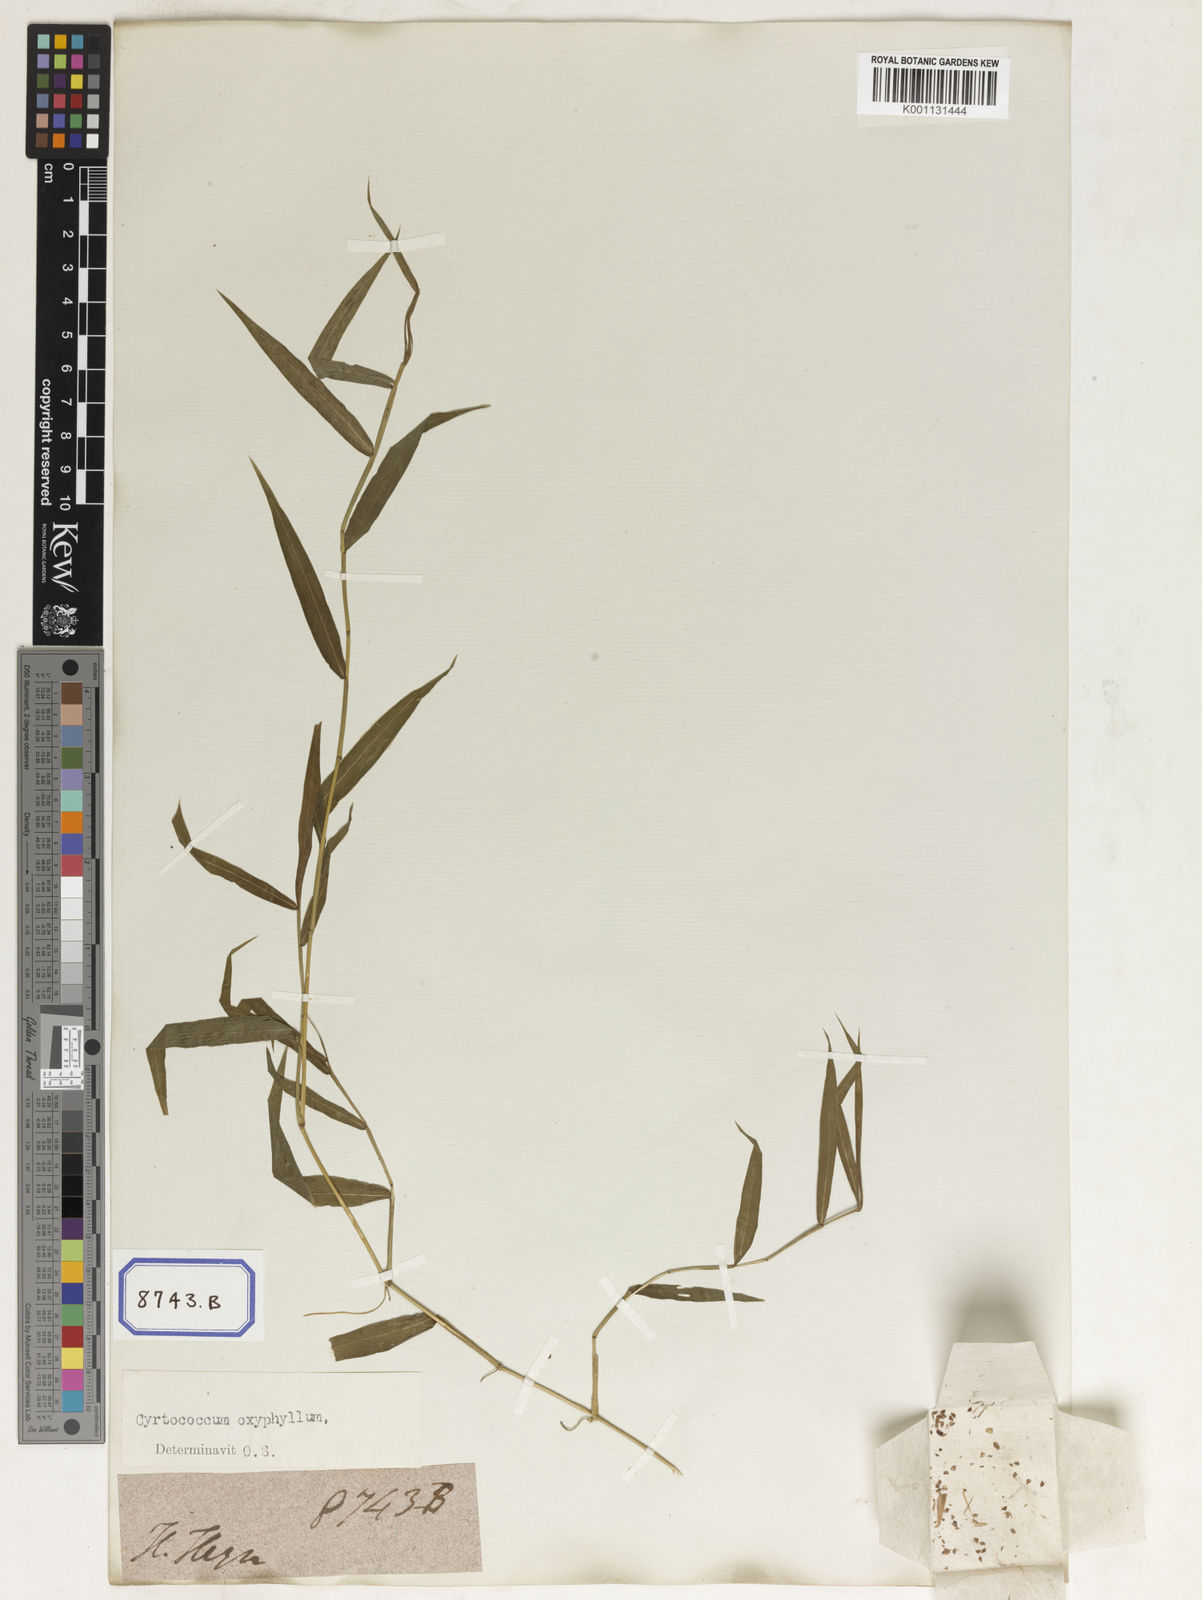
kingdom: Plantae
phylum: Tracheophyta
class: Liliopsida
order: Poales
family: Poaceae
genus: Panicum
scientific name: Panicum
